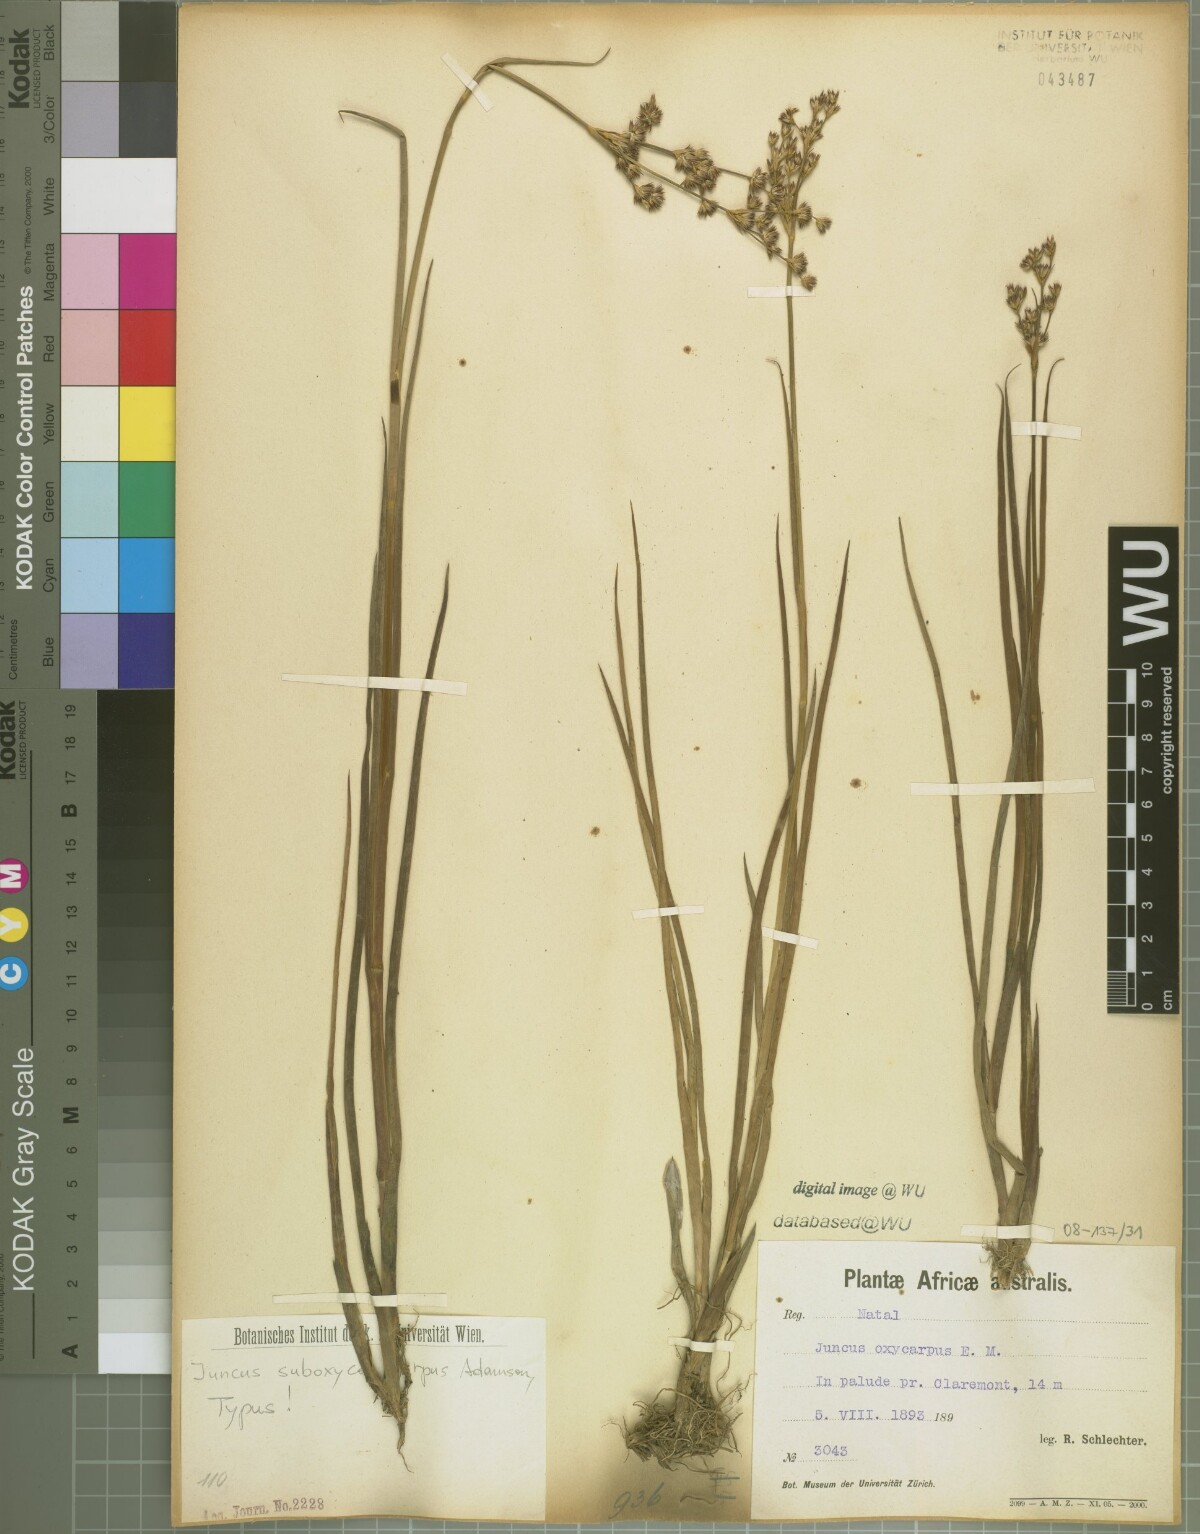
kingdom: Plantae
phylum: Tracheophyta
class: Liliopsida
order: Poales
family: Juncaceae
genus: Juncus
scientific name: Juncus oxycarpus
